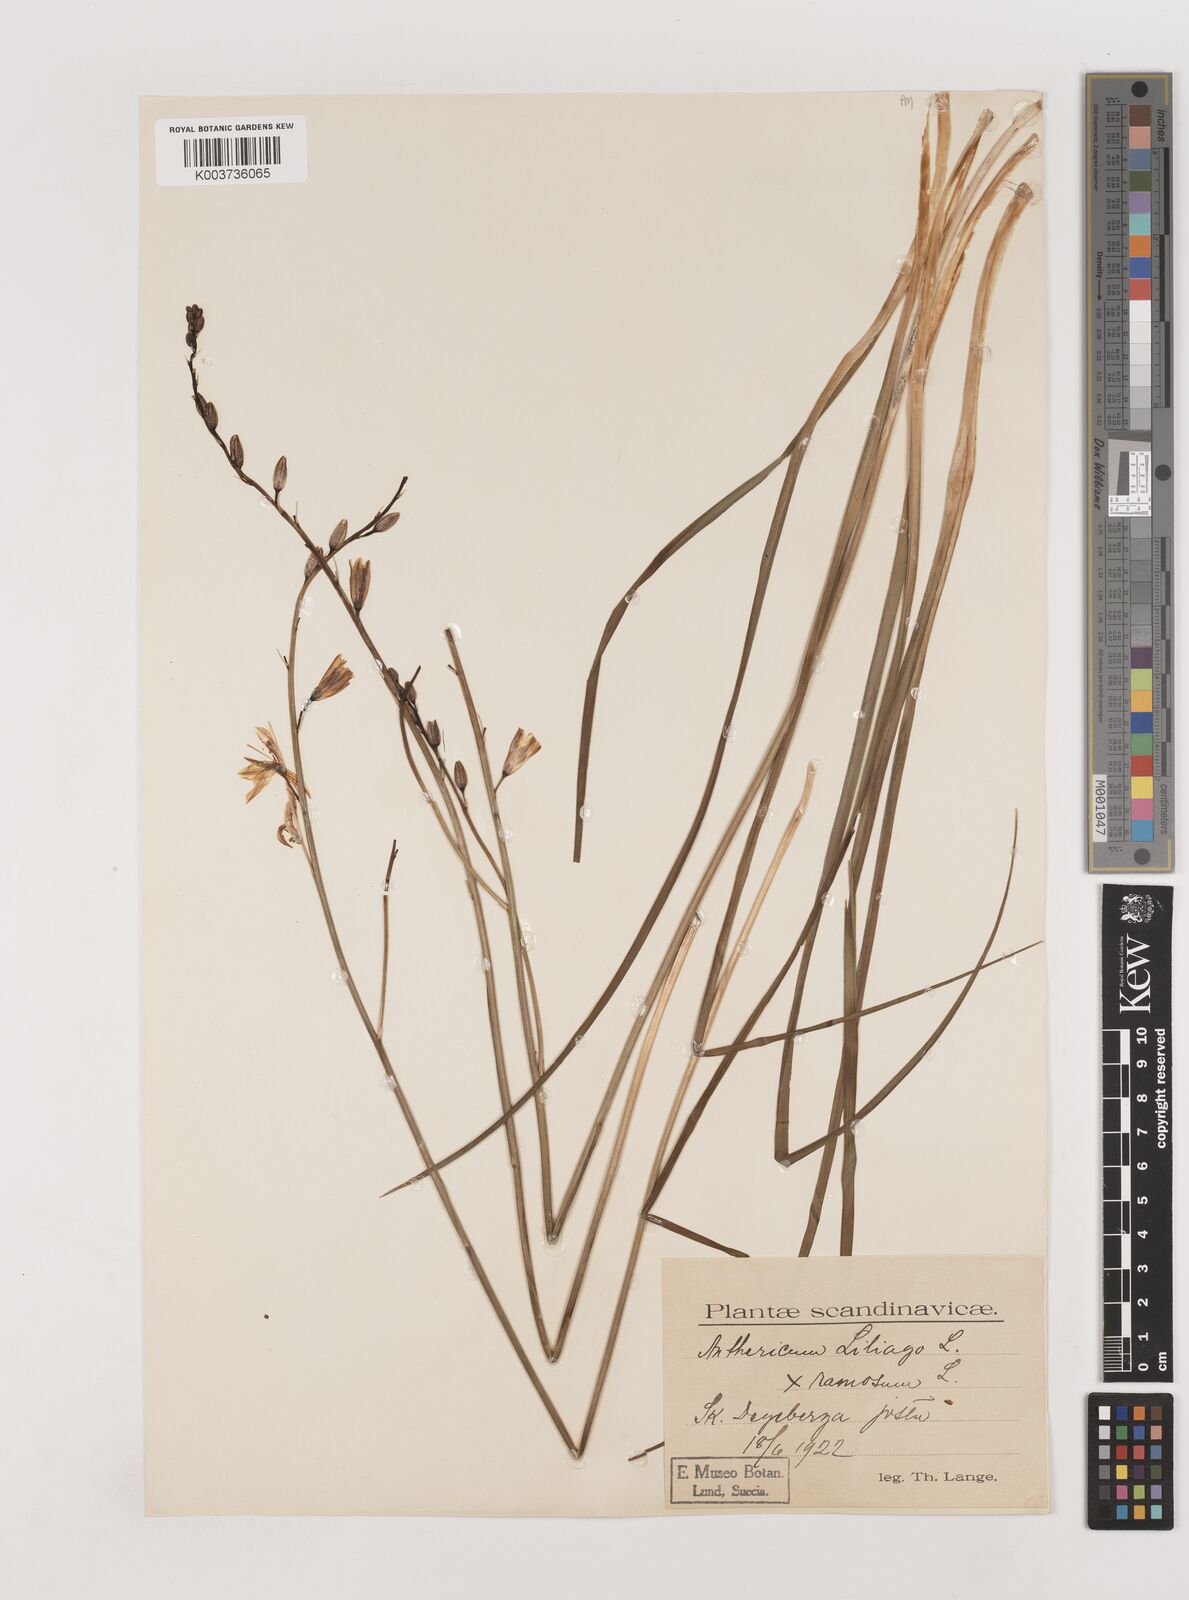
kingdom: Plantae
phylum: Tracheophyta
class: Liliopsida
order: Asparagales
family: Asparagaceae
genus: Anthericum
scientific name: Anthericum liliago
